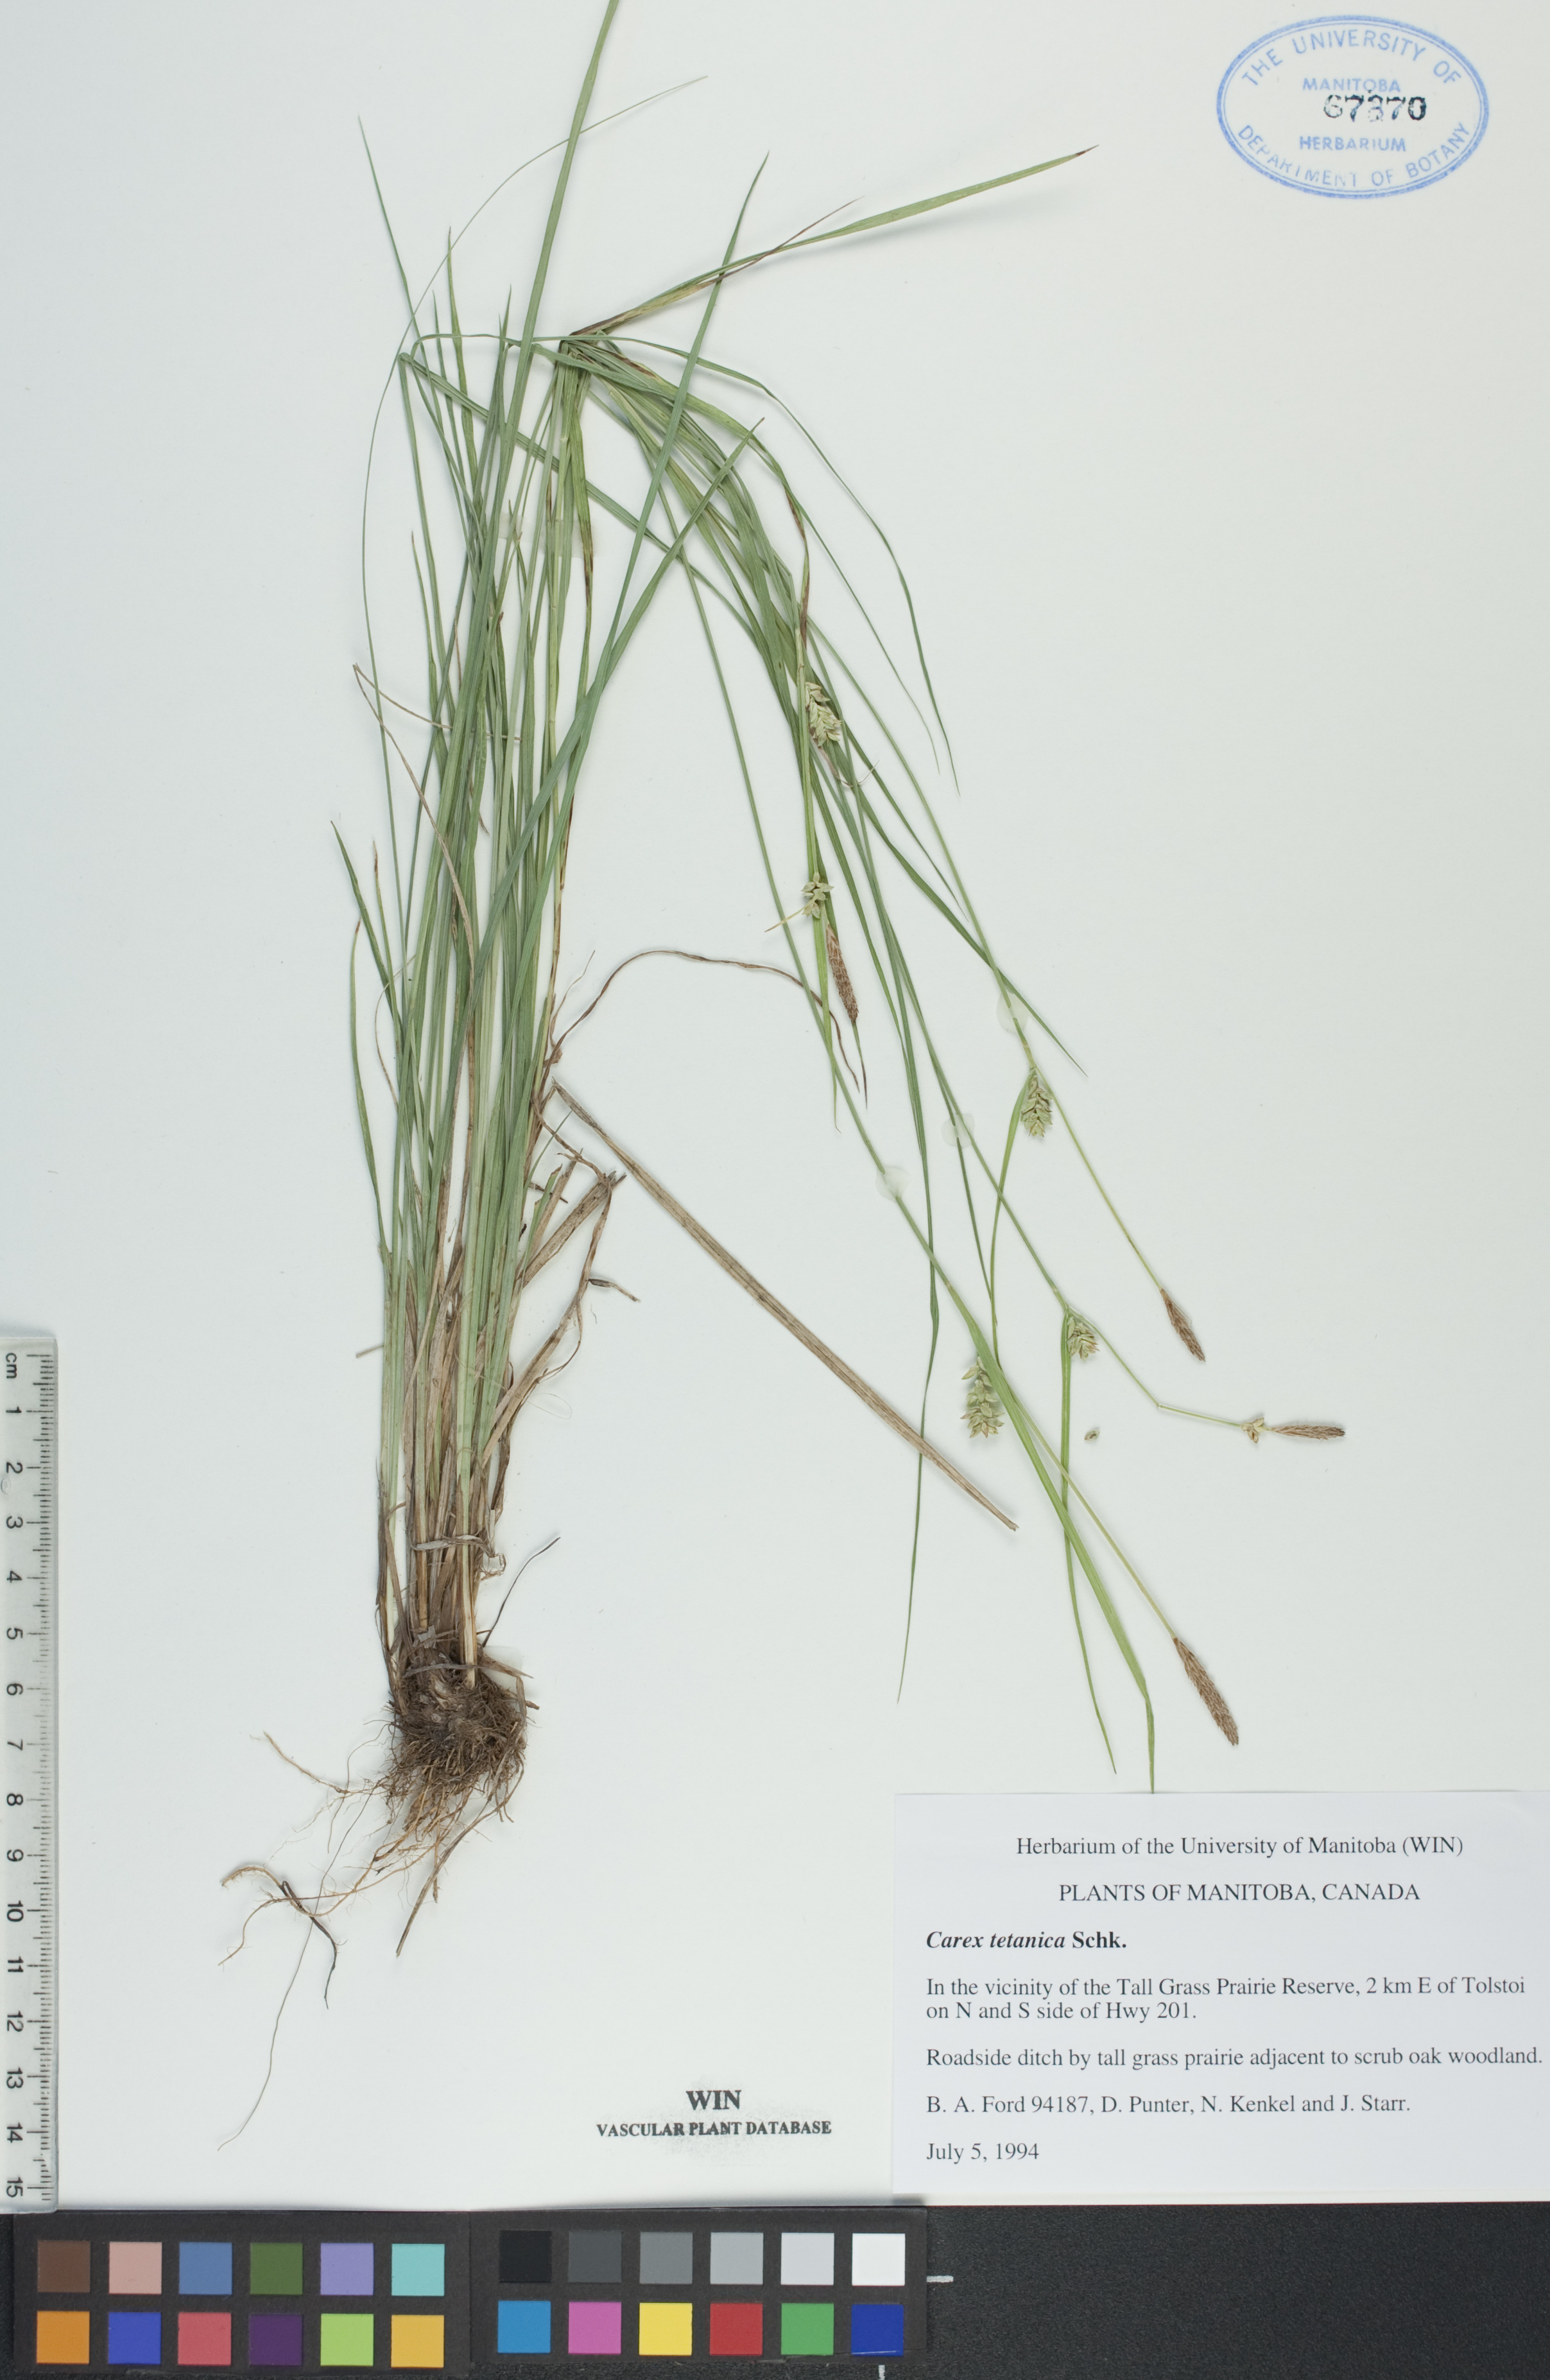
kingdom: Plantae
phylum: Tracheophyta
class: Liliopsida
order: Poales
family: Cyperaceae
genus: Carex
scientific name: Carex tetanica
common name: Rigid sedge
